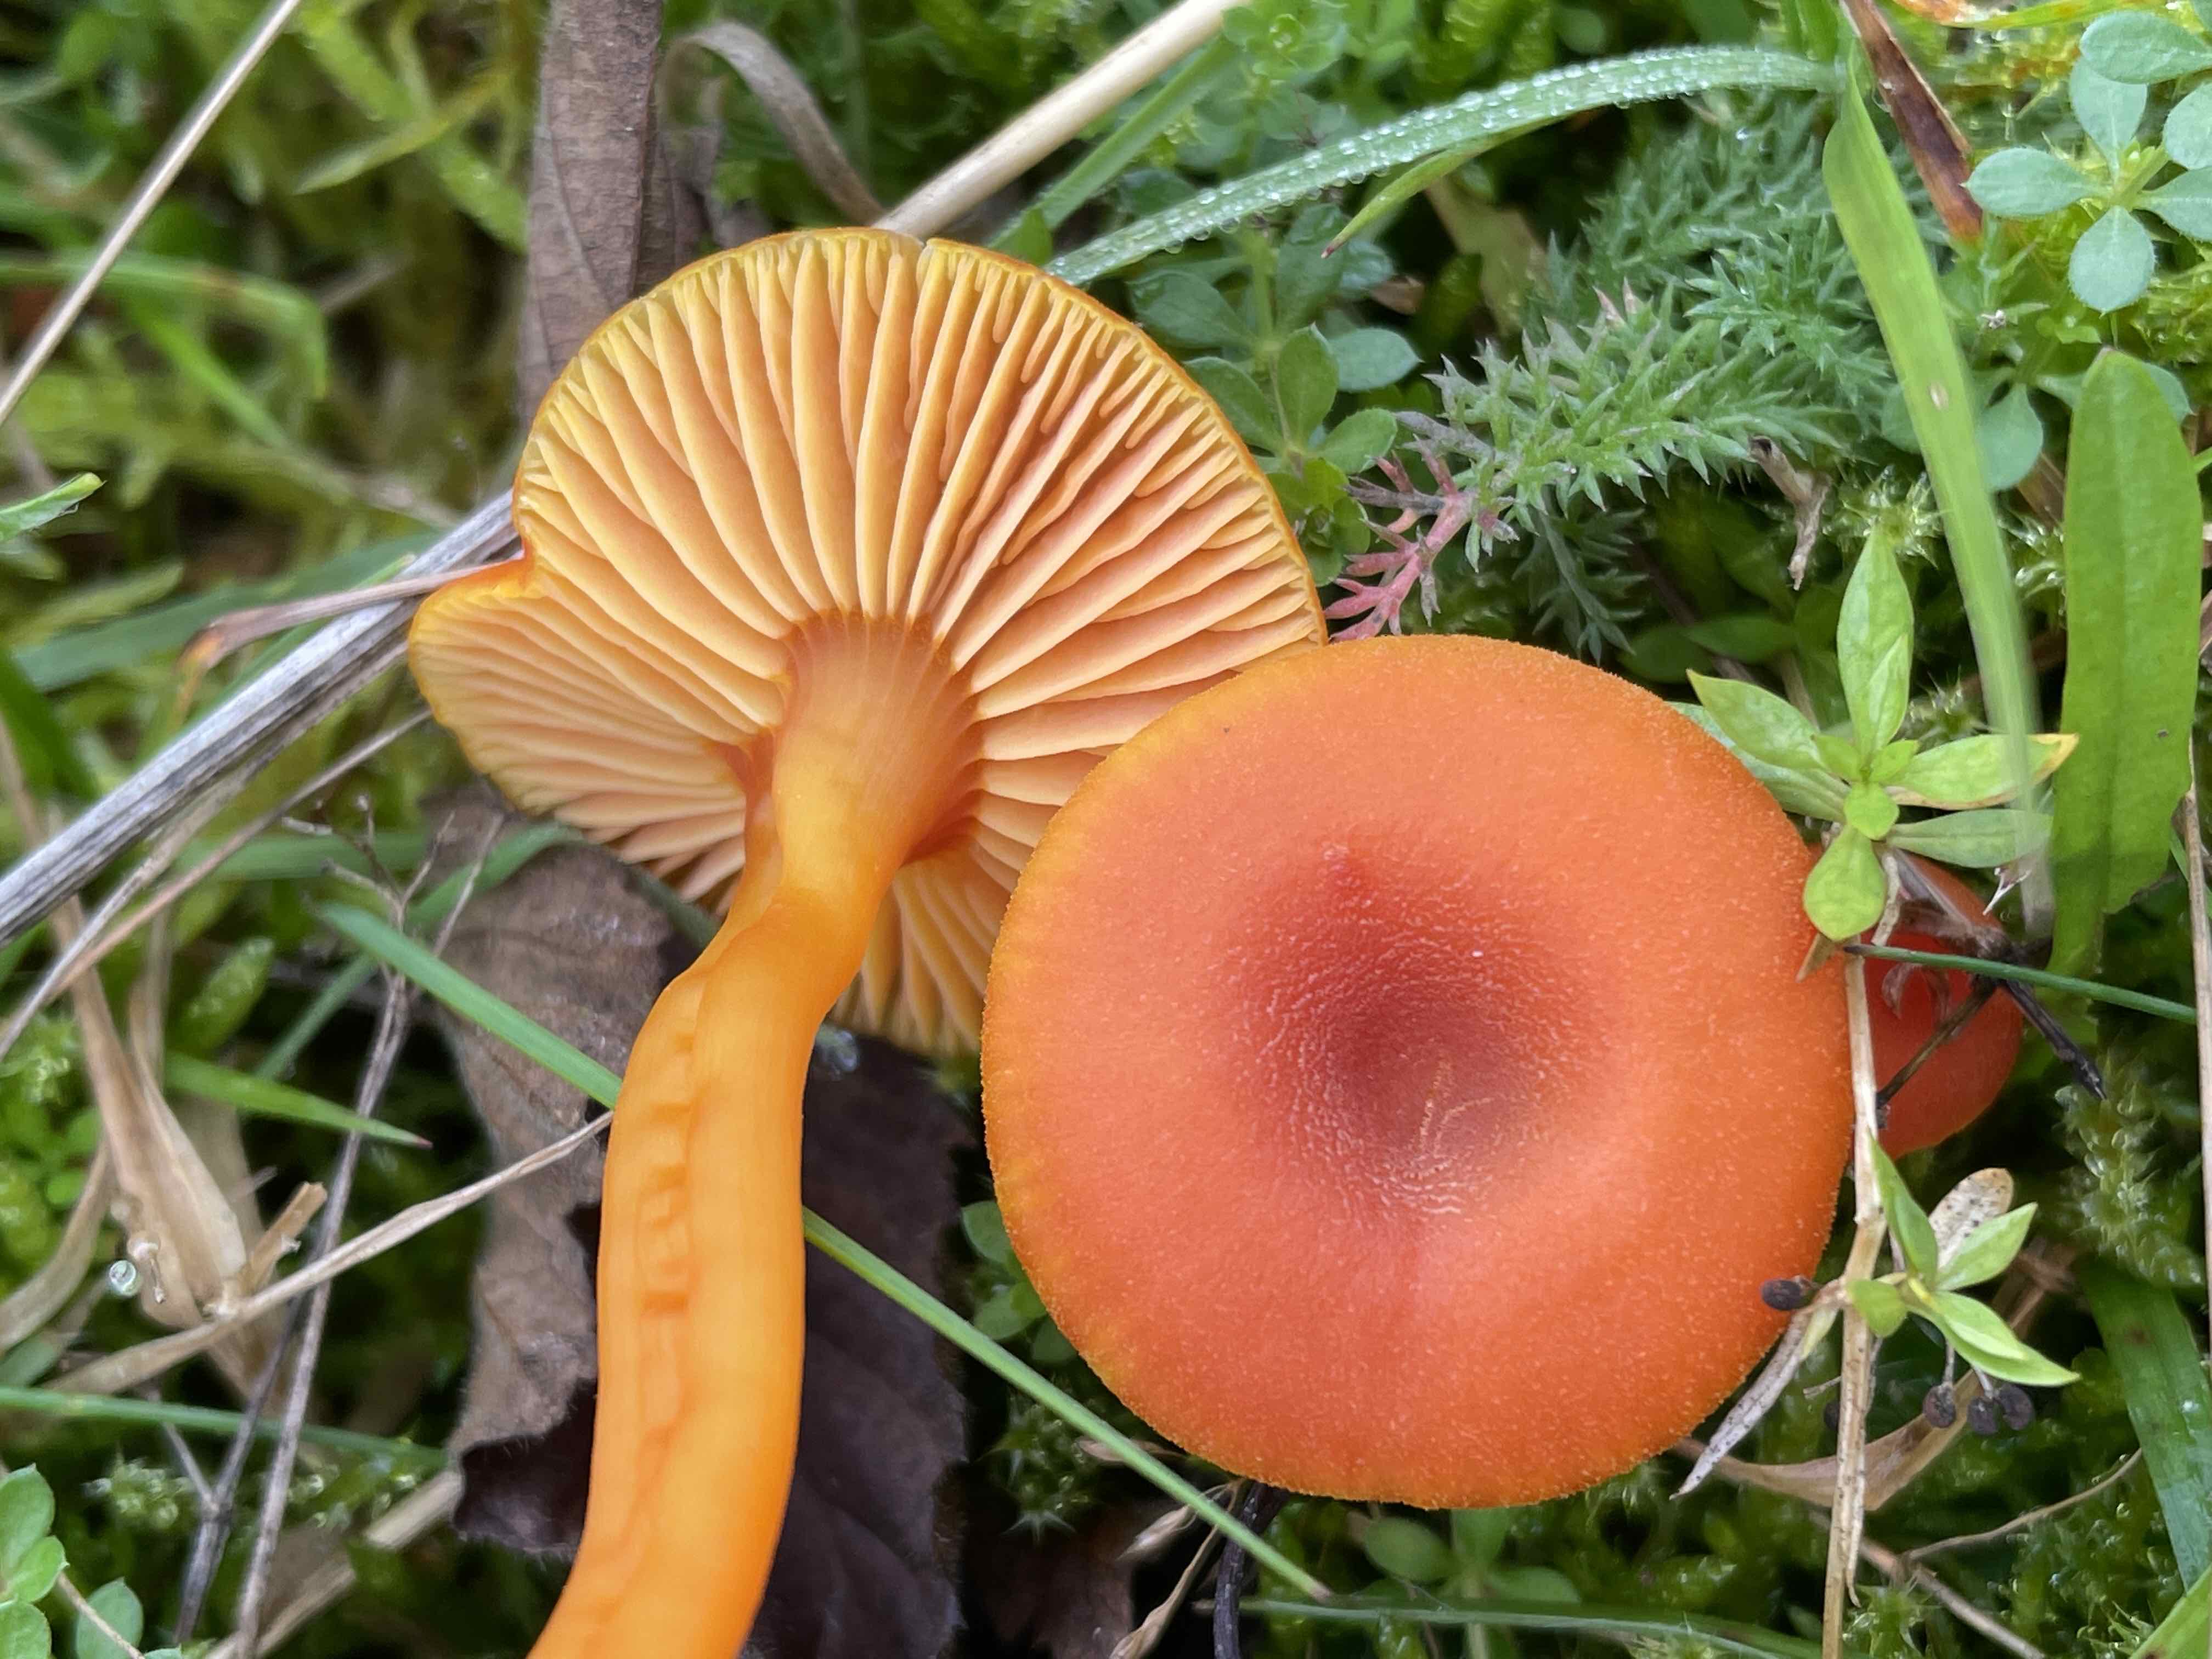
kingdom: Fungi
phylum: Basidiomycota
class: Agaricomycetes
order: Agaricales
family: Hygrophoraceae
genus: Hygrocybe
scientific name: Hygrocybe miniata
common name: mønje-vokshat
